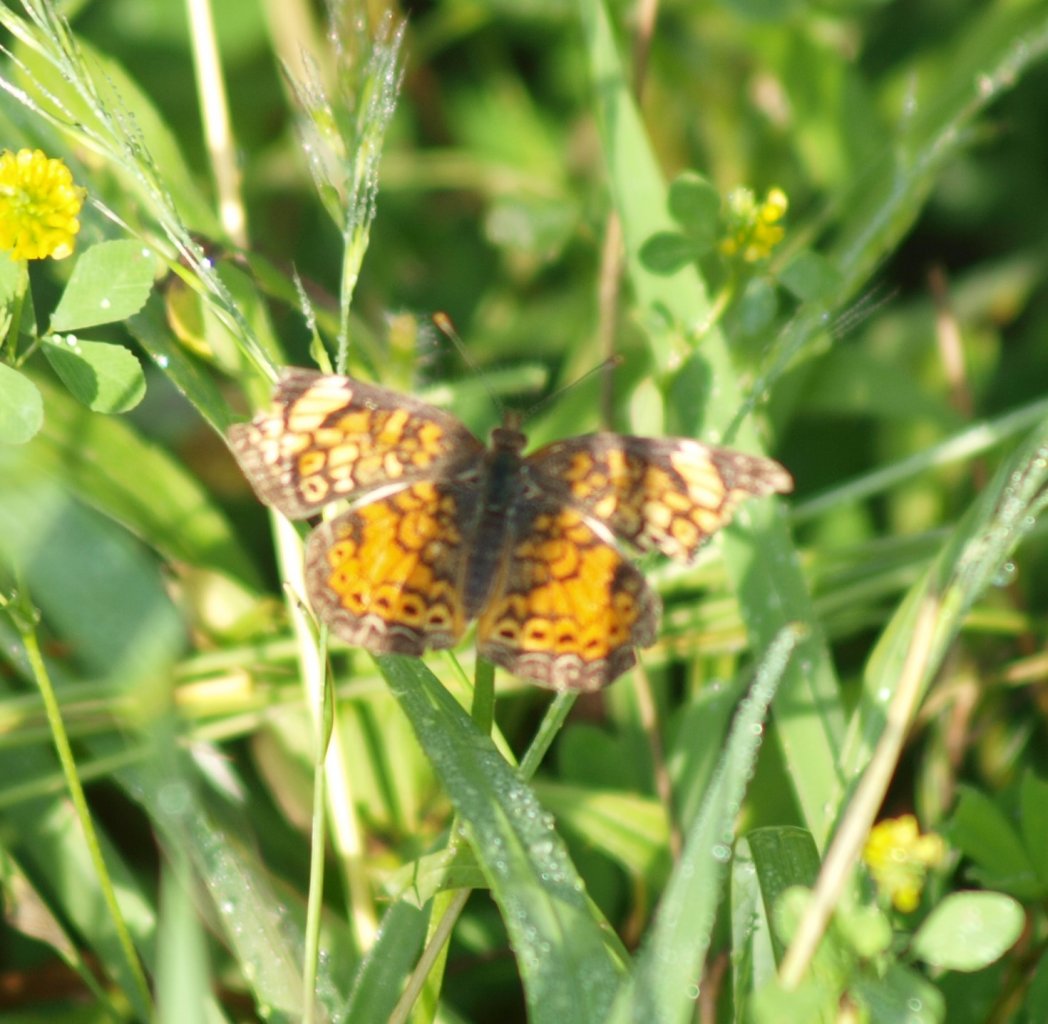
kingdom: Animalia
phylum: Arthropoda
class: Insecta
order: Lepidoptera
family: Nymphalidae
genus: Phyciodes
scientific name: Phyciodes tharos
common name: Pearl Crescent
